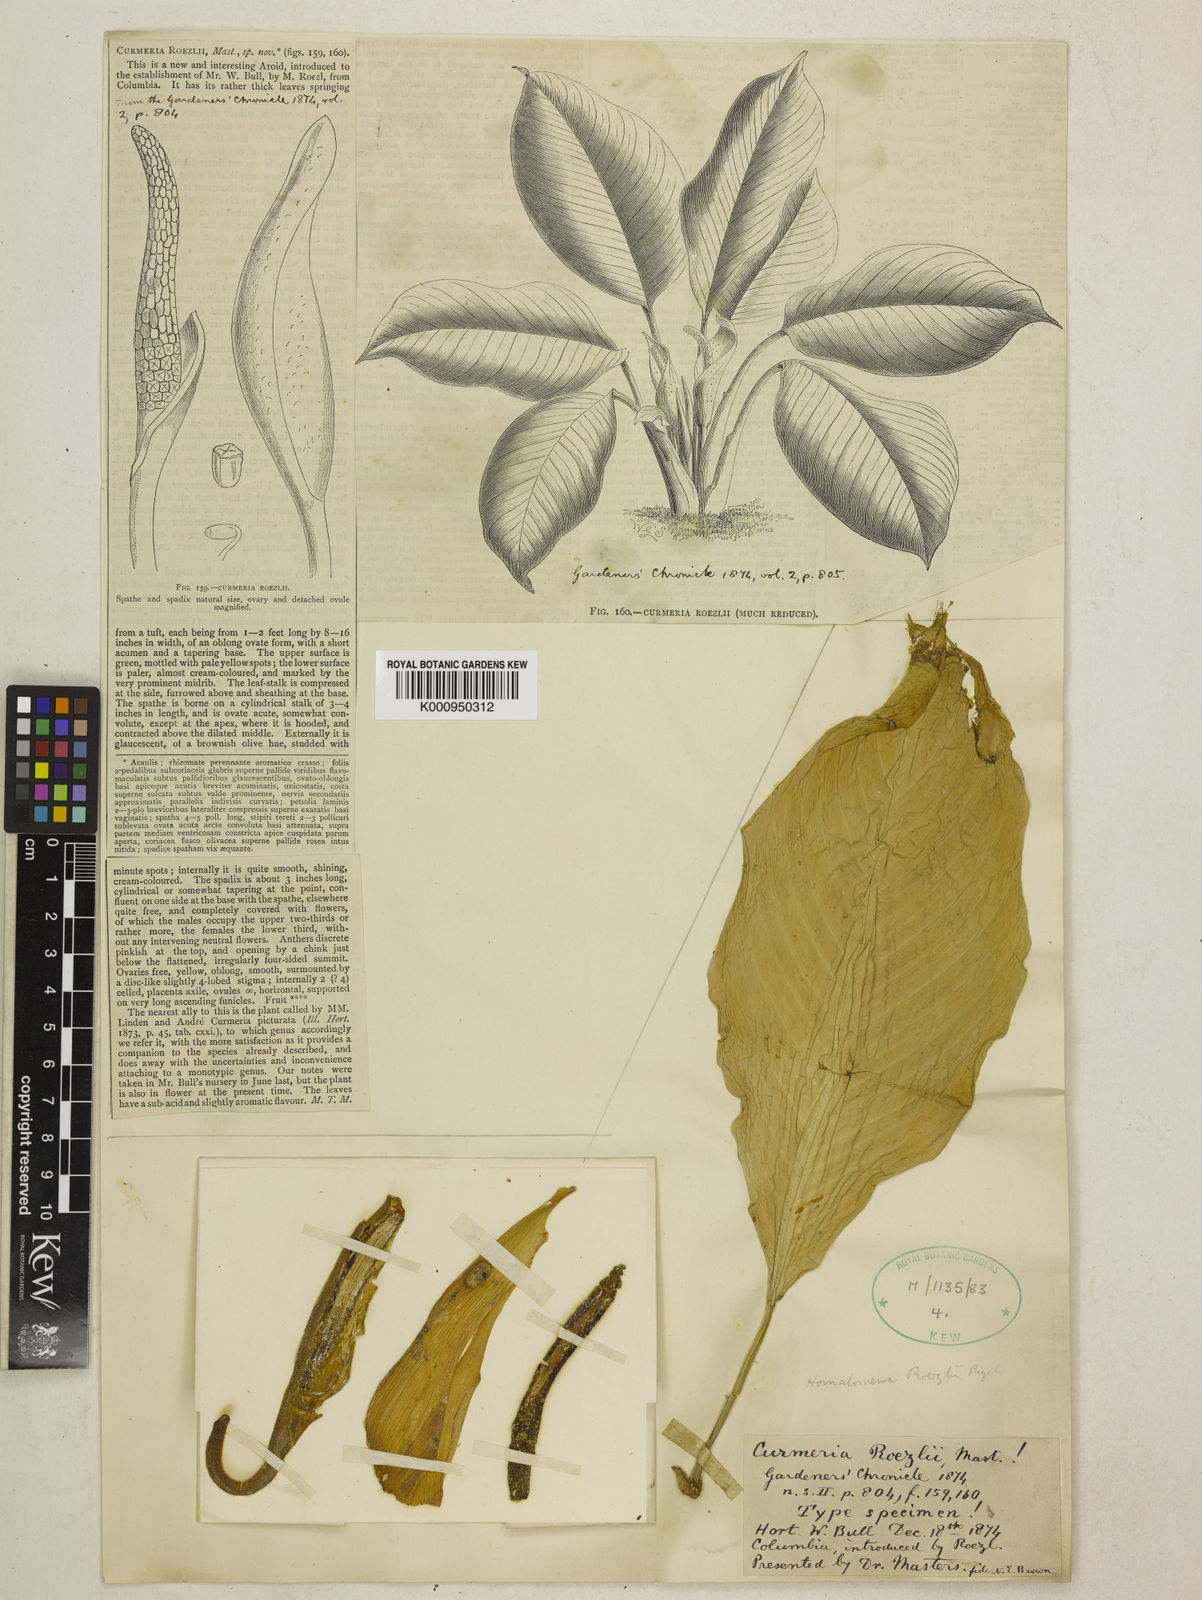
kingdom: Plantae
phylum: Tracheophyta
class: Liliopsida
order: Alismatales
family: Araceae
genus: Homalomena
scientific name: Homalomena
